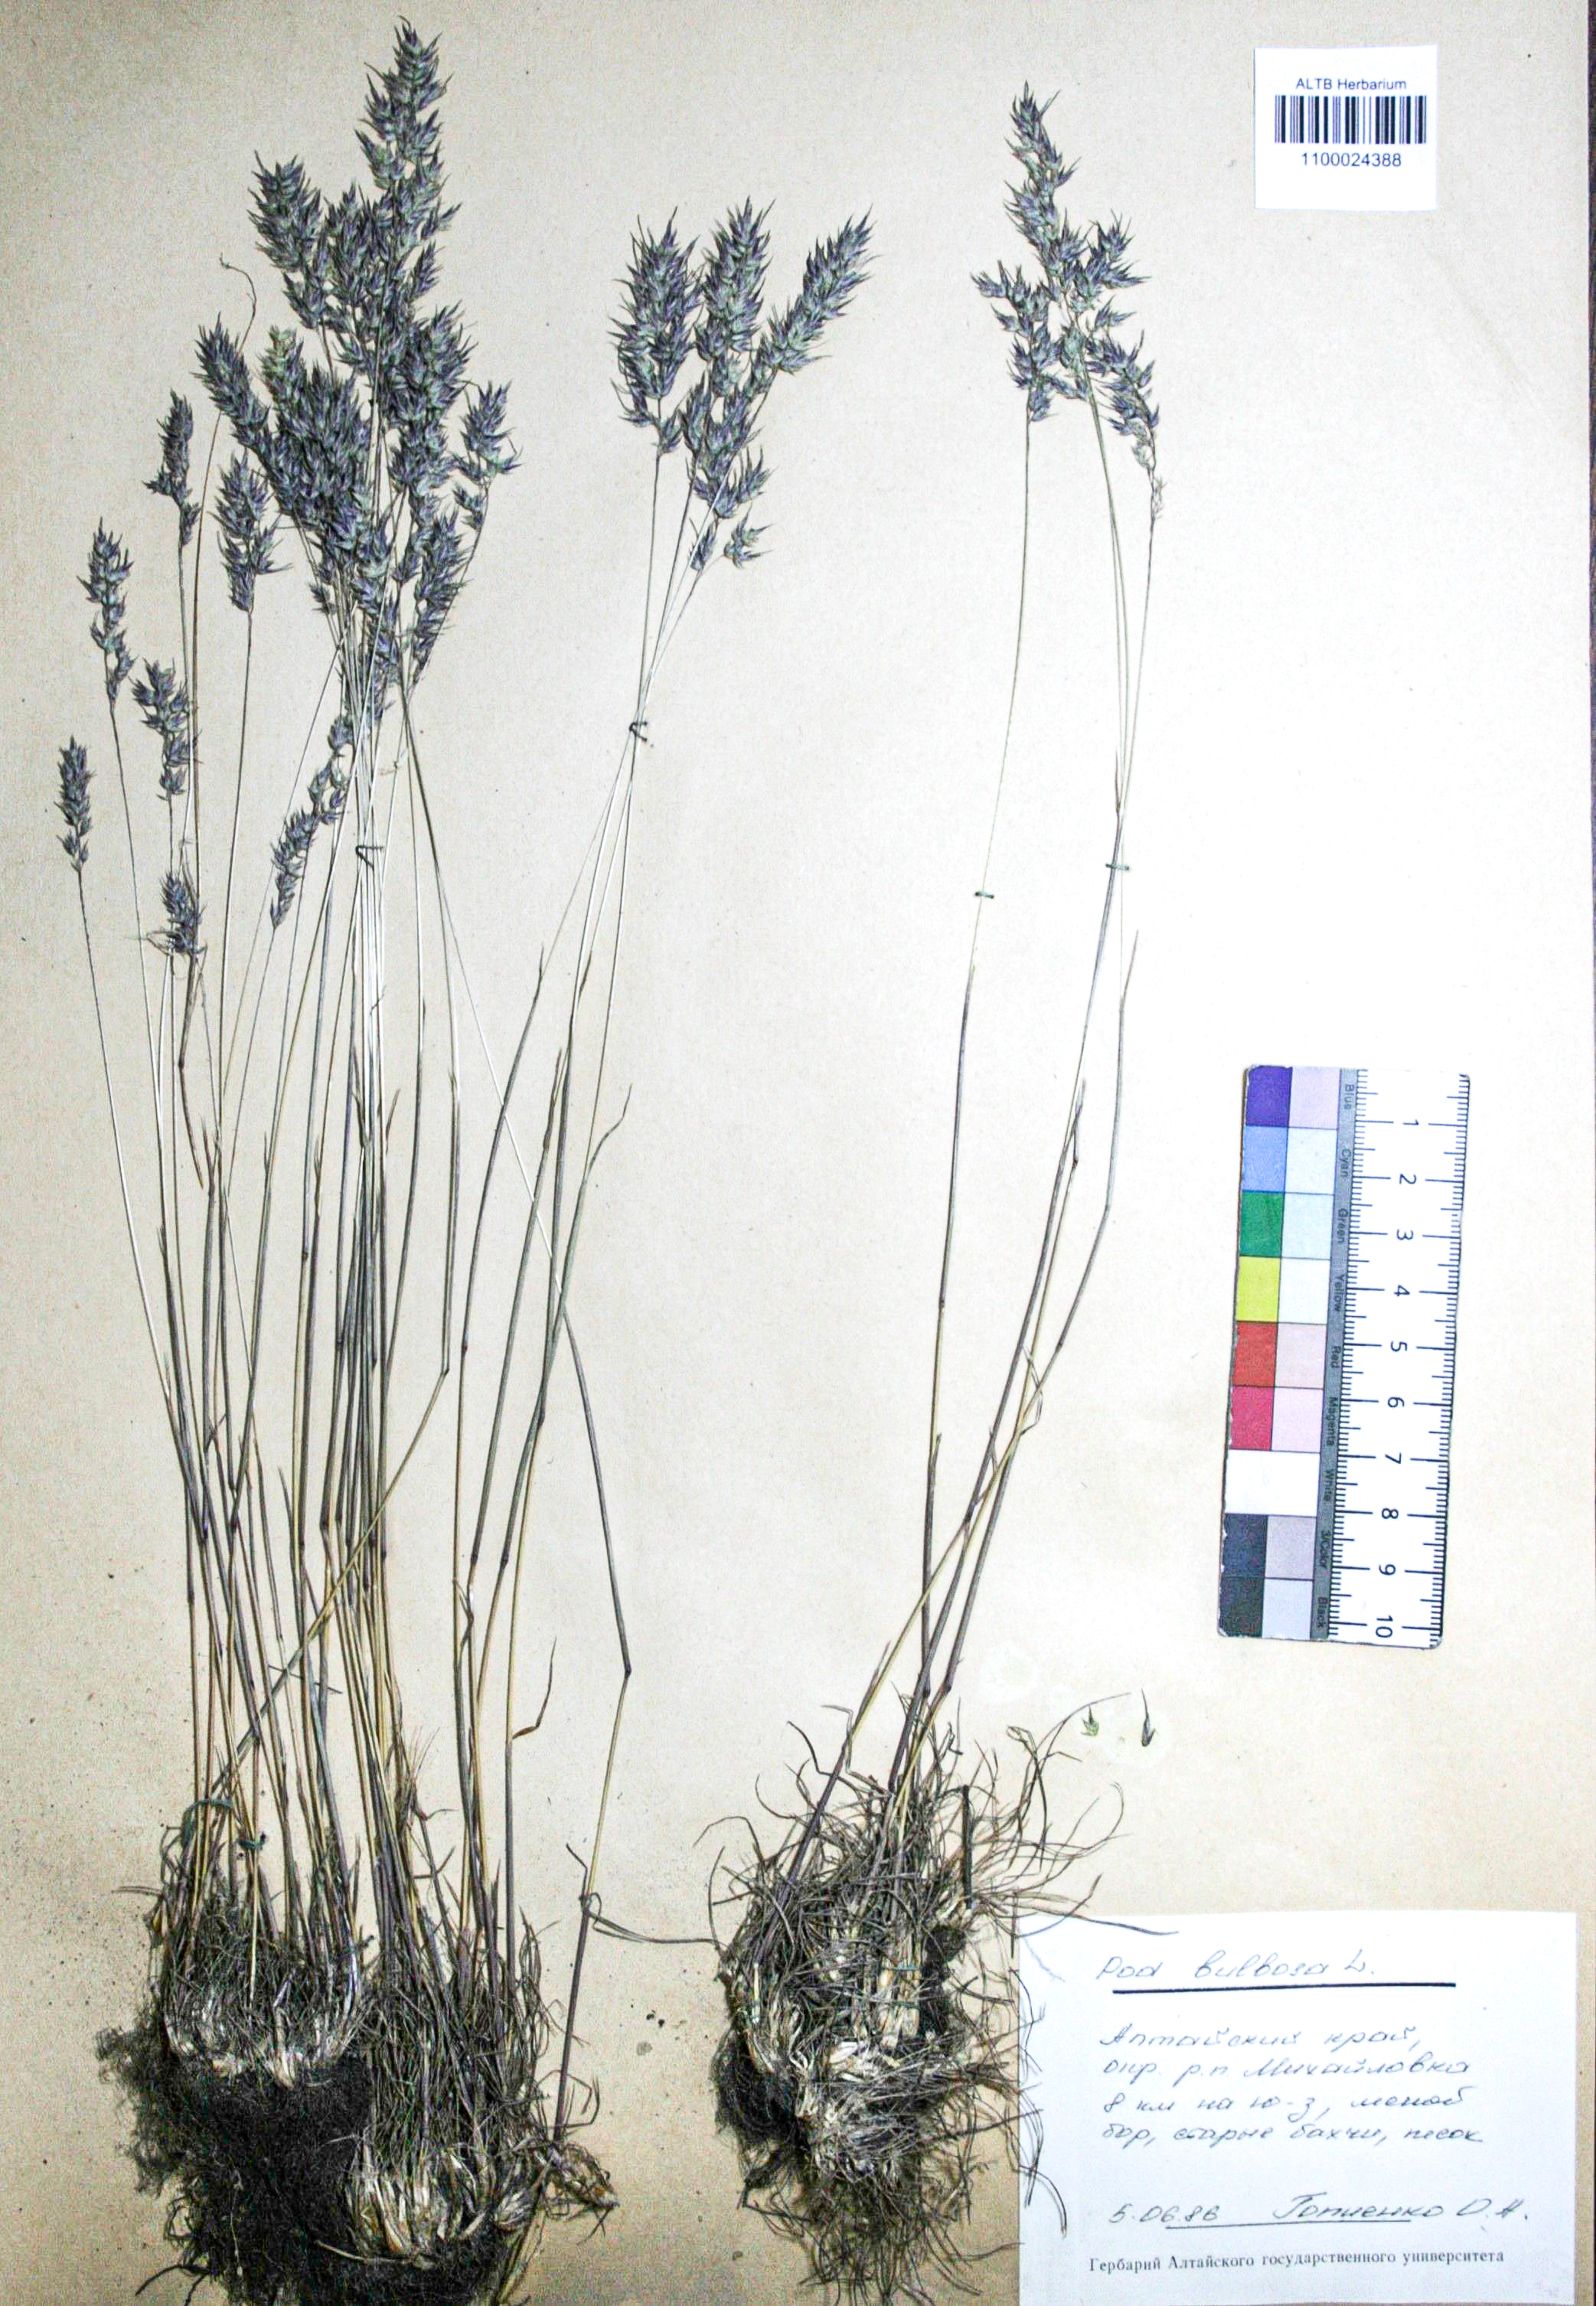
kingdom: Plantae
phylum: Tracheophyta
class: Liliopsida
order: Poales
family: Poaceae
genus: Poa
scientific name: Poa bulbosa
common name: Bulbous bluegrass
